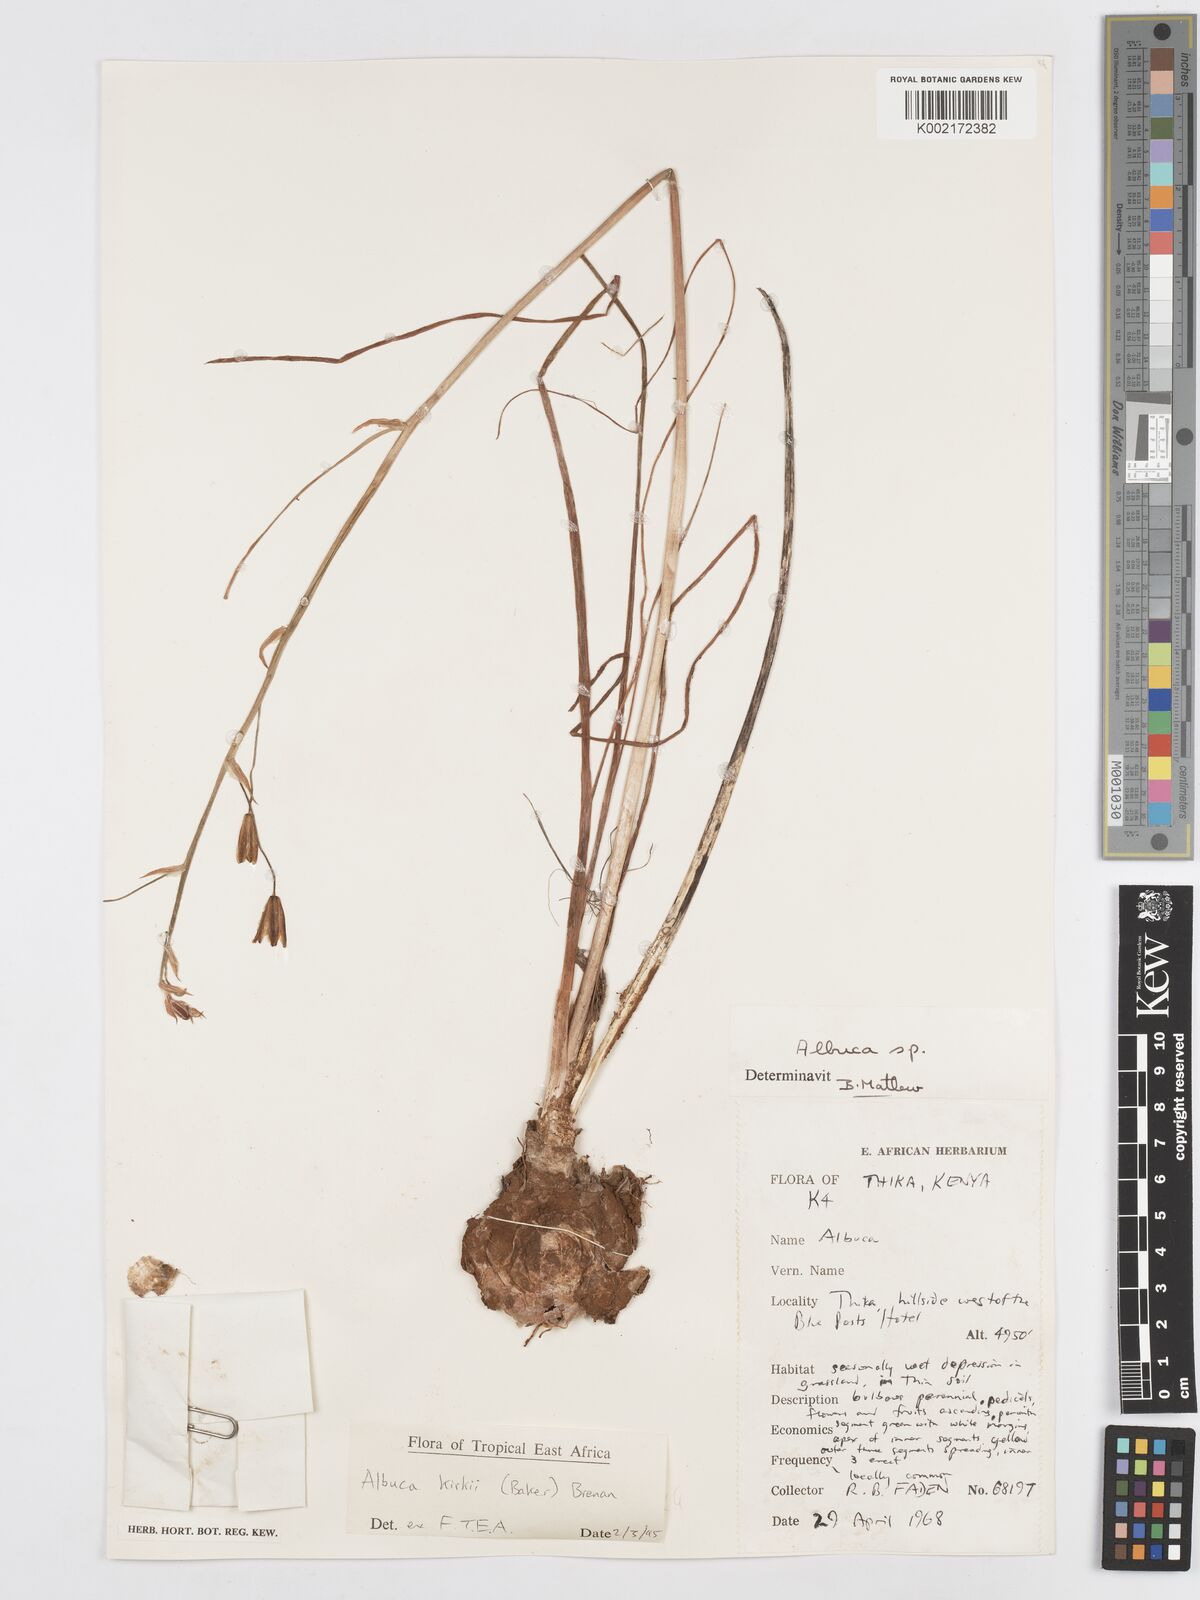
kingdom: Plantae
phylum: Tracheophyta
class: Liliopsida
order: Asparagales
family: Asparagaceae
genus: Albuca
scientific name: Albuca kirkii
